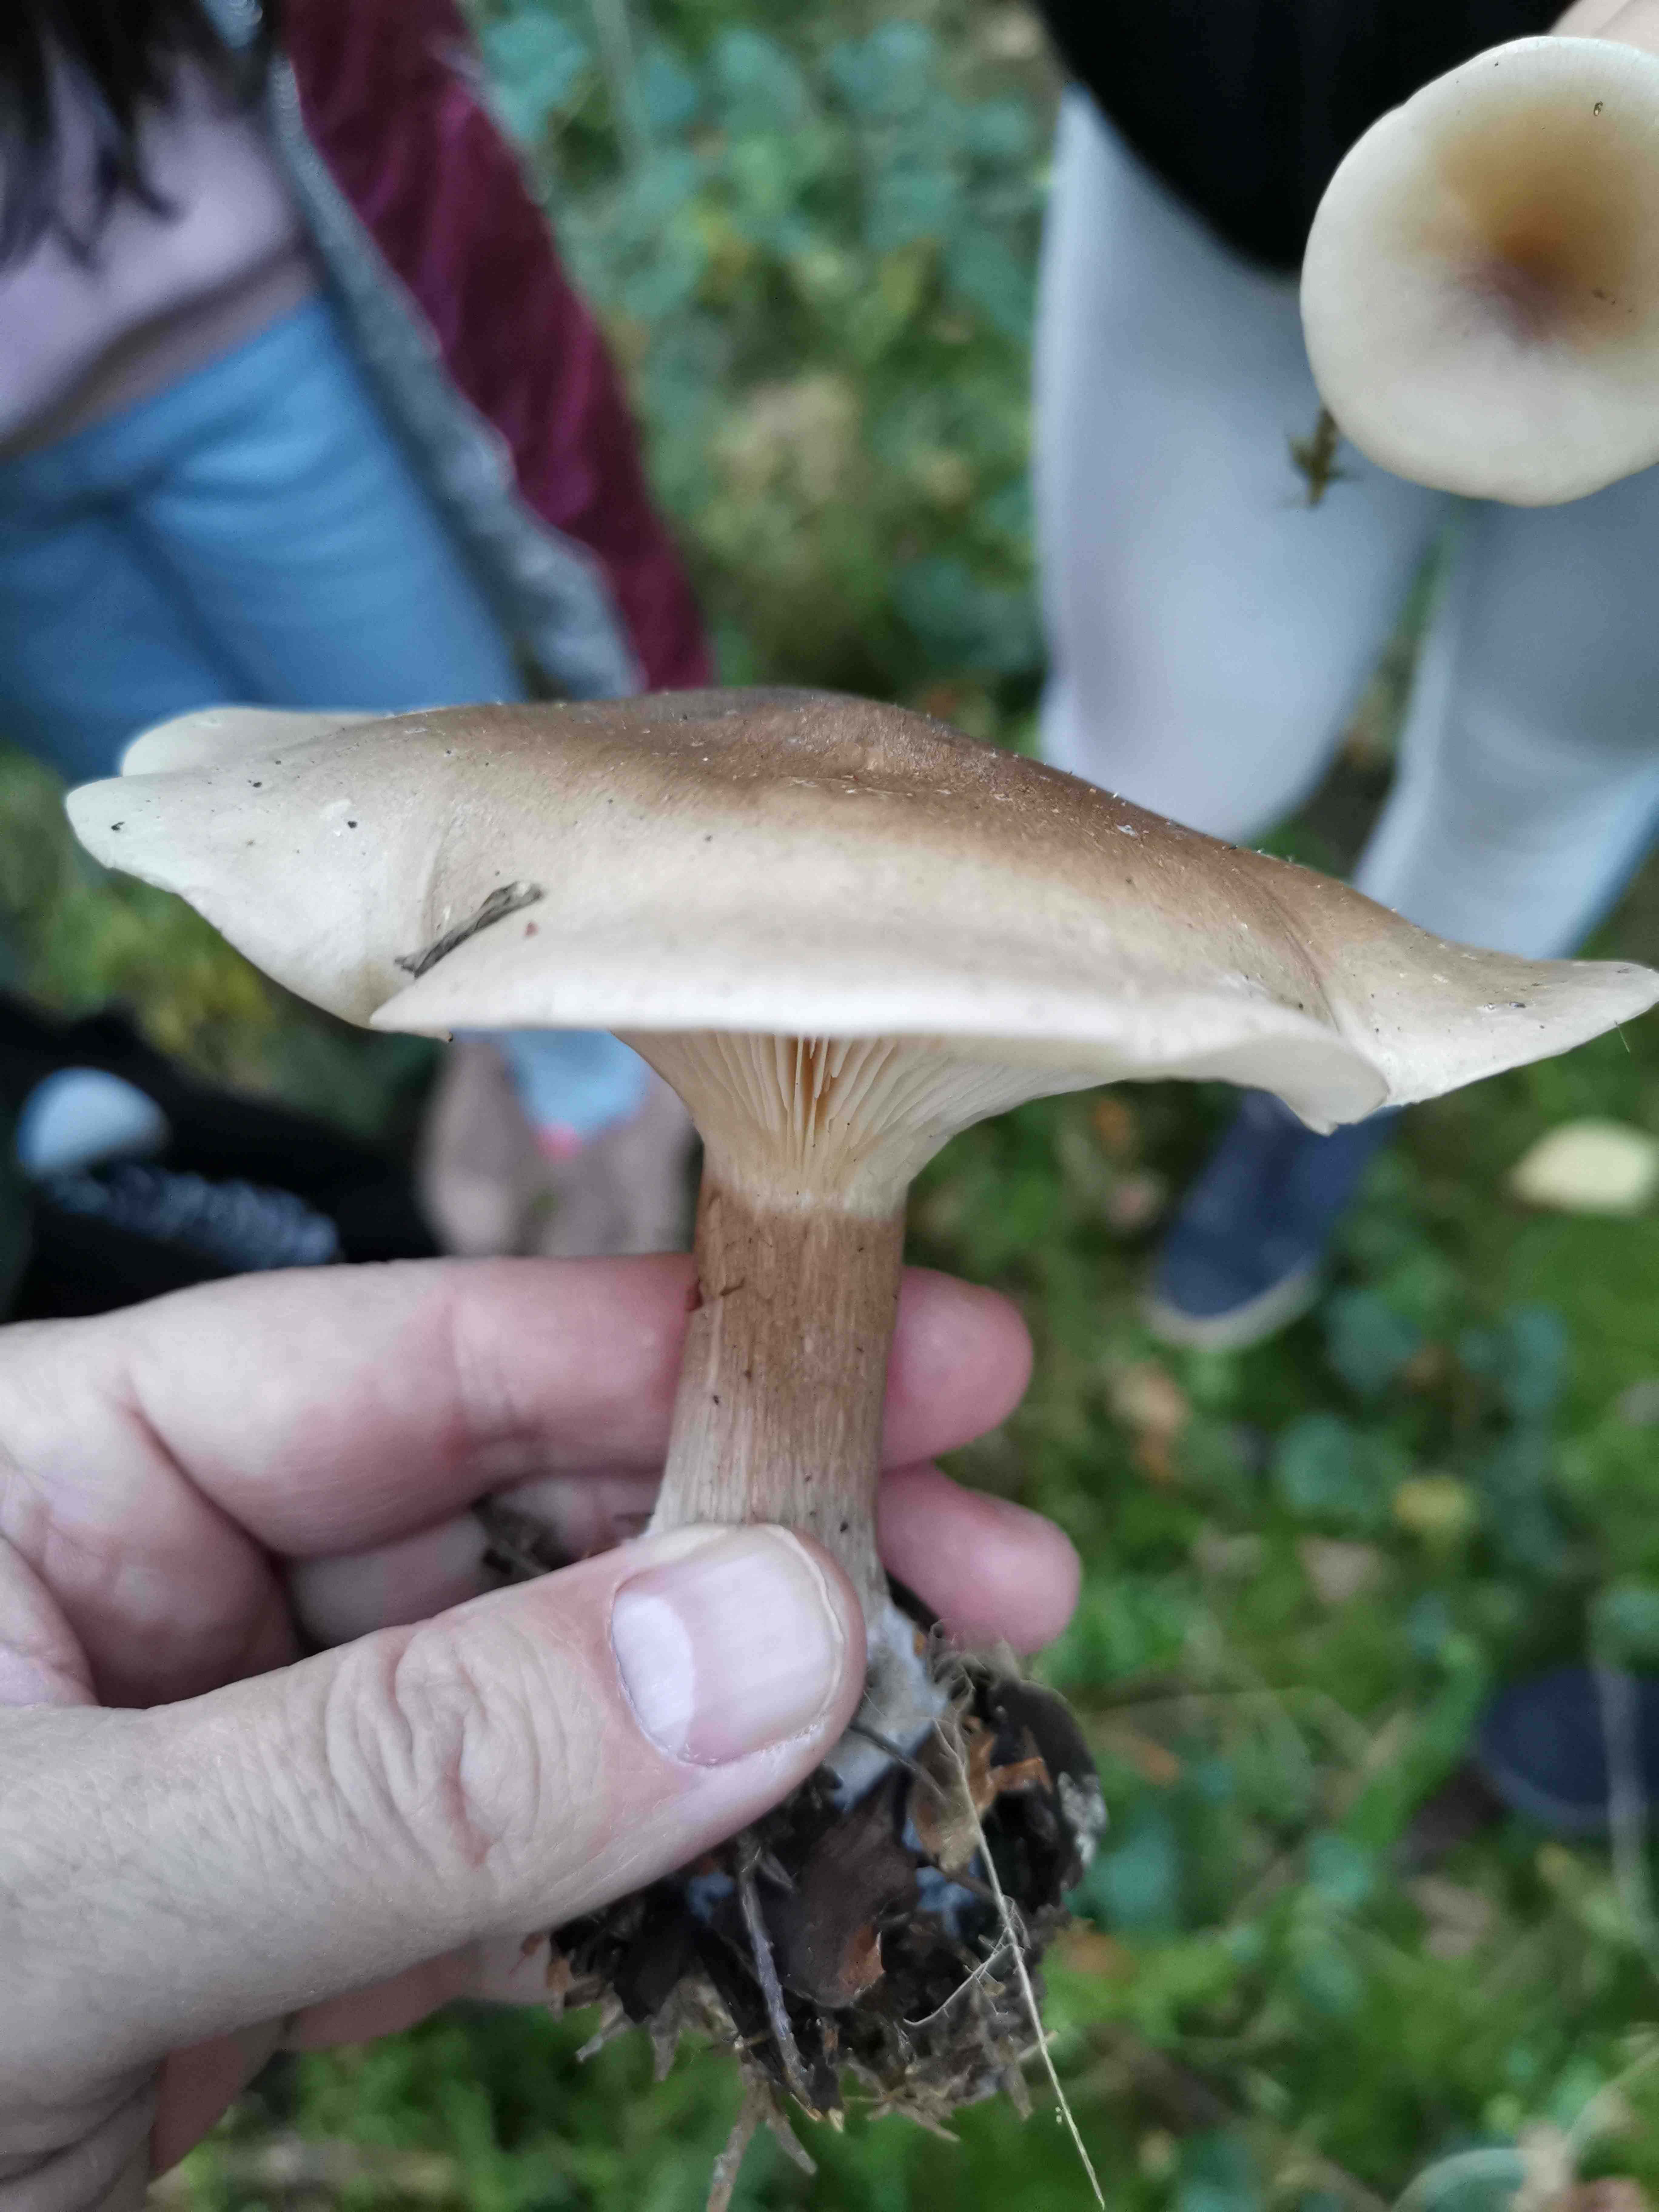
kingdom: Fungi
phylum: Basidiomycota
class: Agaricomycetes
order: Agaricales
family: Tricholomataceae
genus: Clitocybe
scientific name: Clitocybe nebularis
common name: tåge-tragthat
